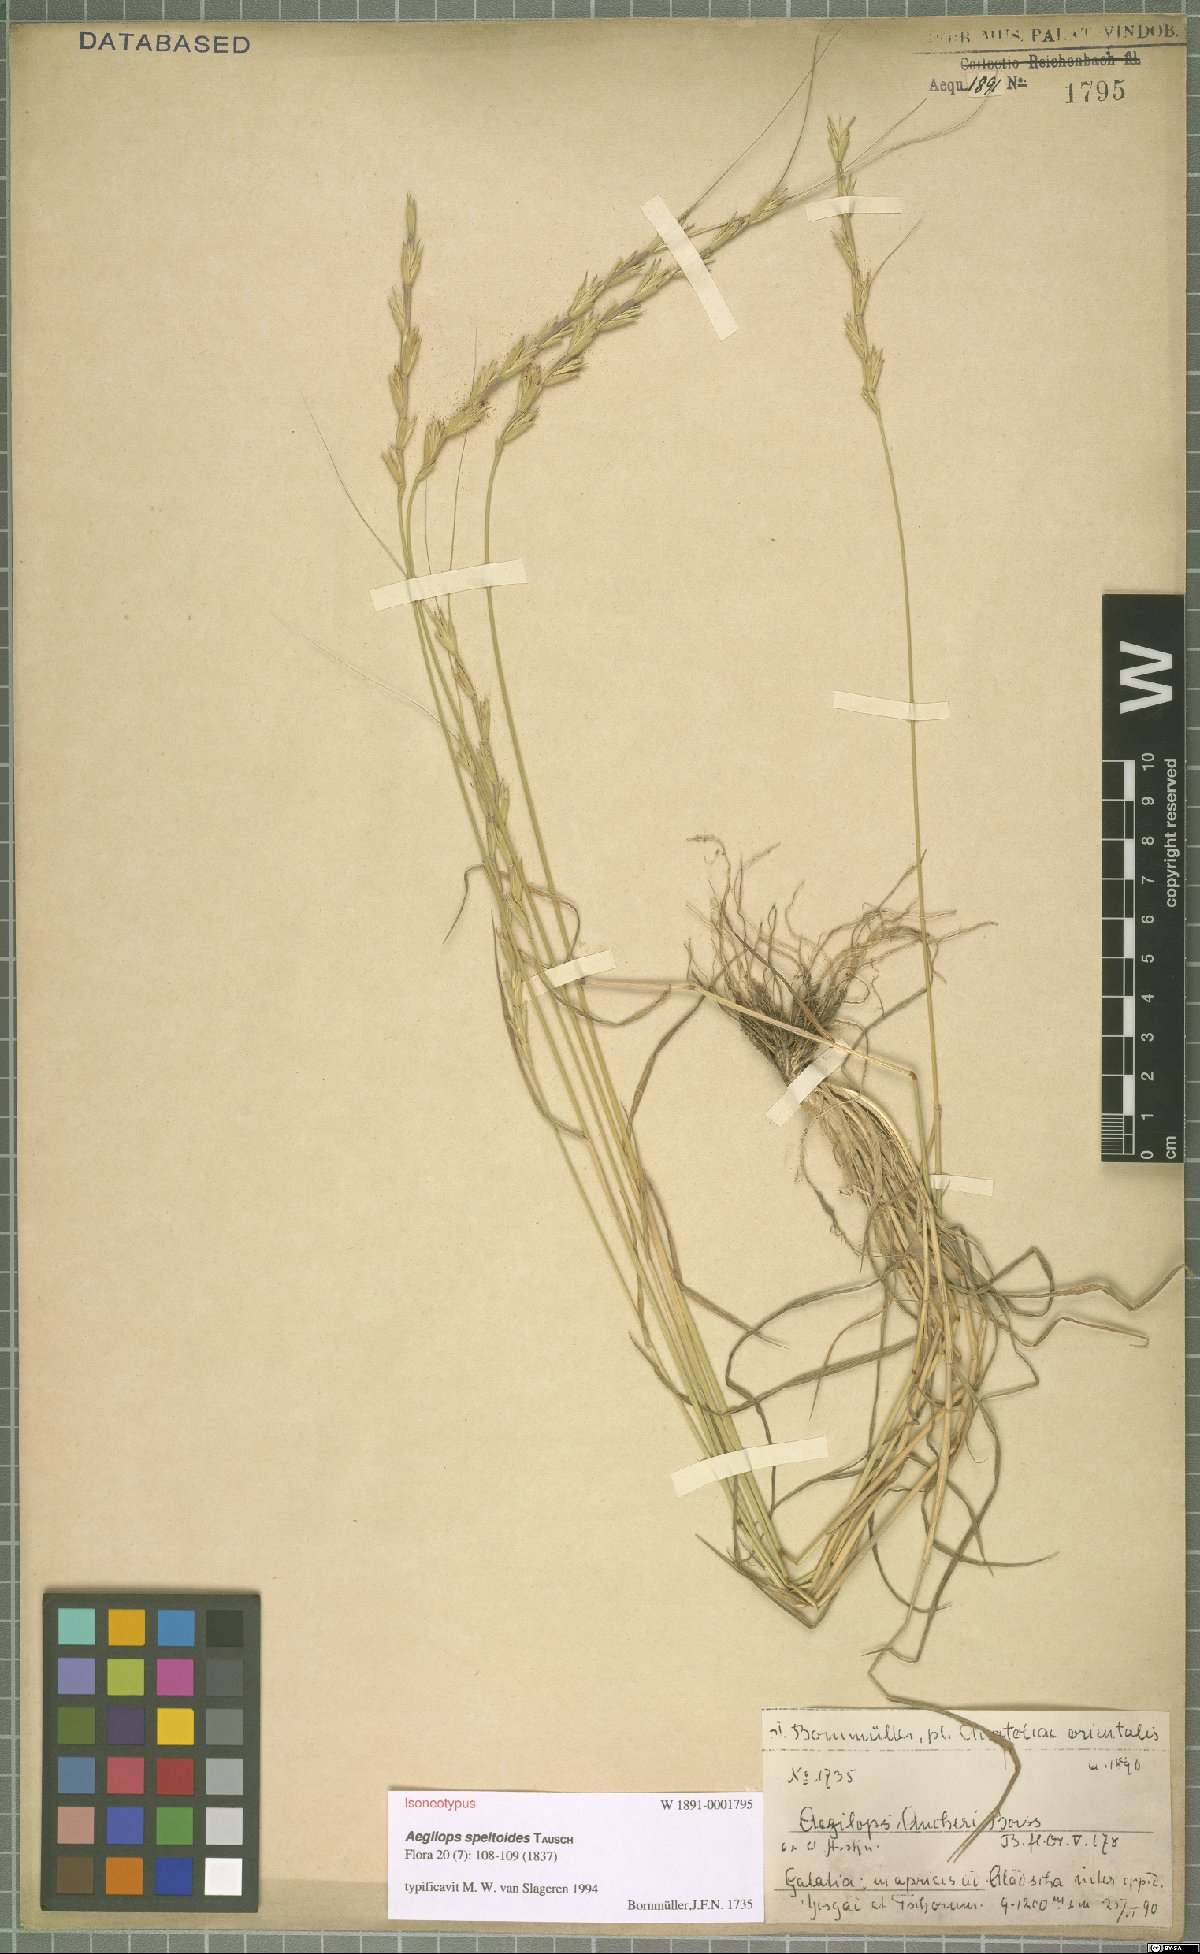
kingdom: Plantae
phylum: Tracheophyta
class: Liliopsida
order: Poales
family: Poaceae
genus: Aegilops
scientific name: Aegilops speltoides
